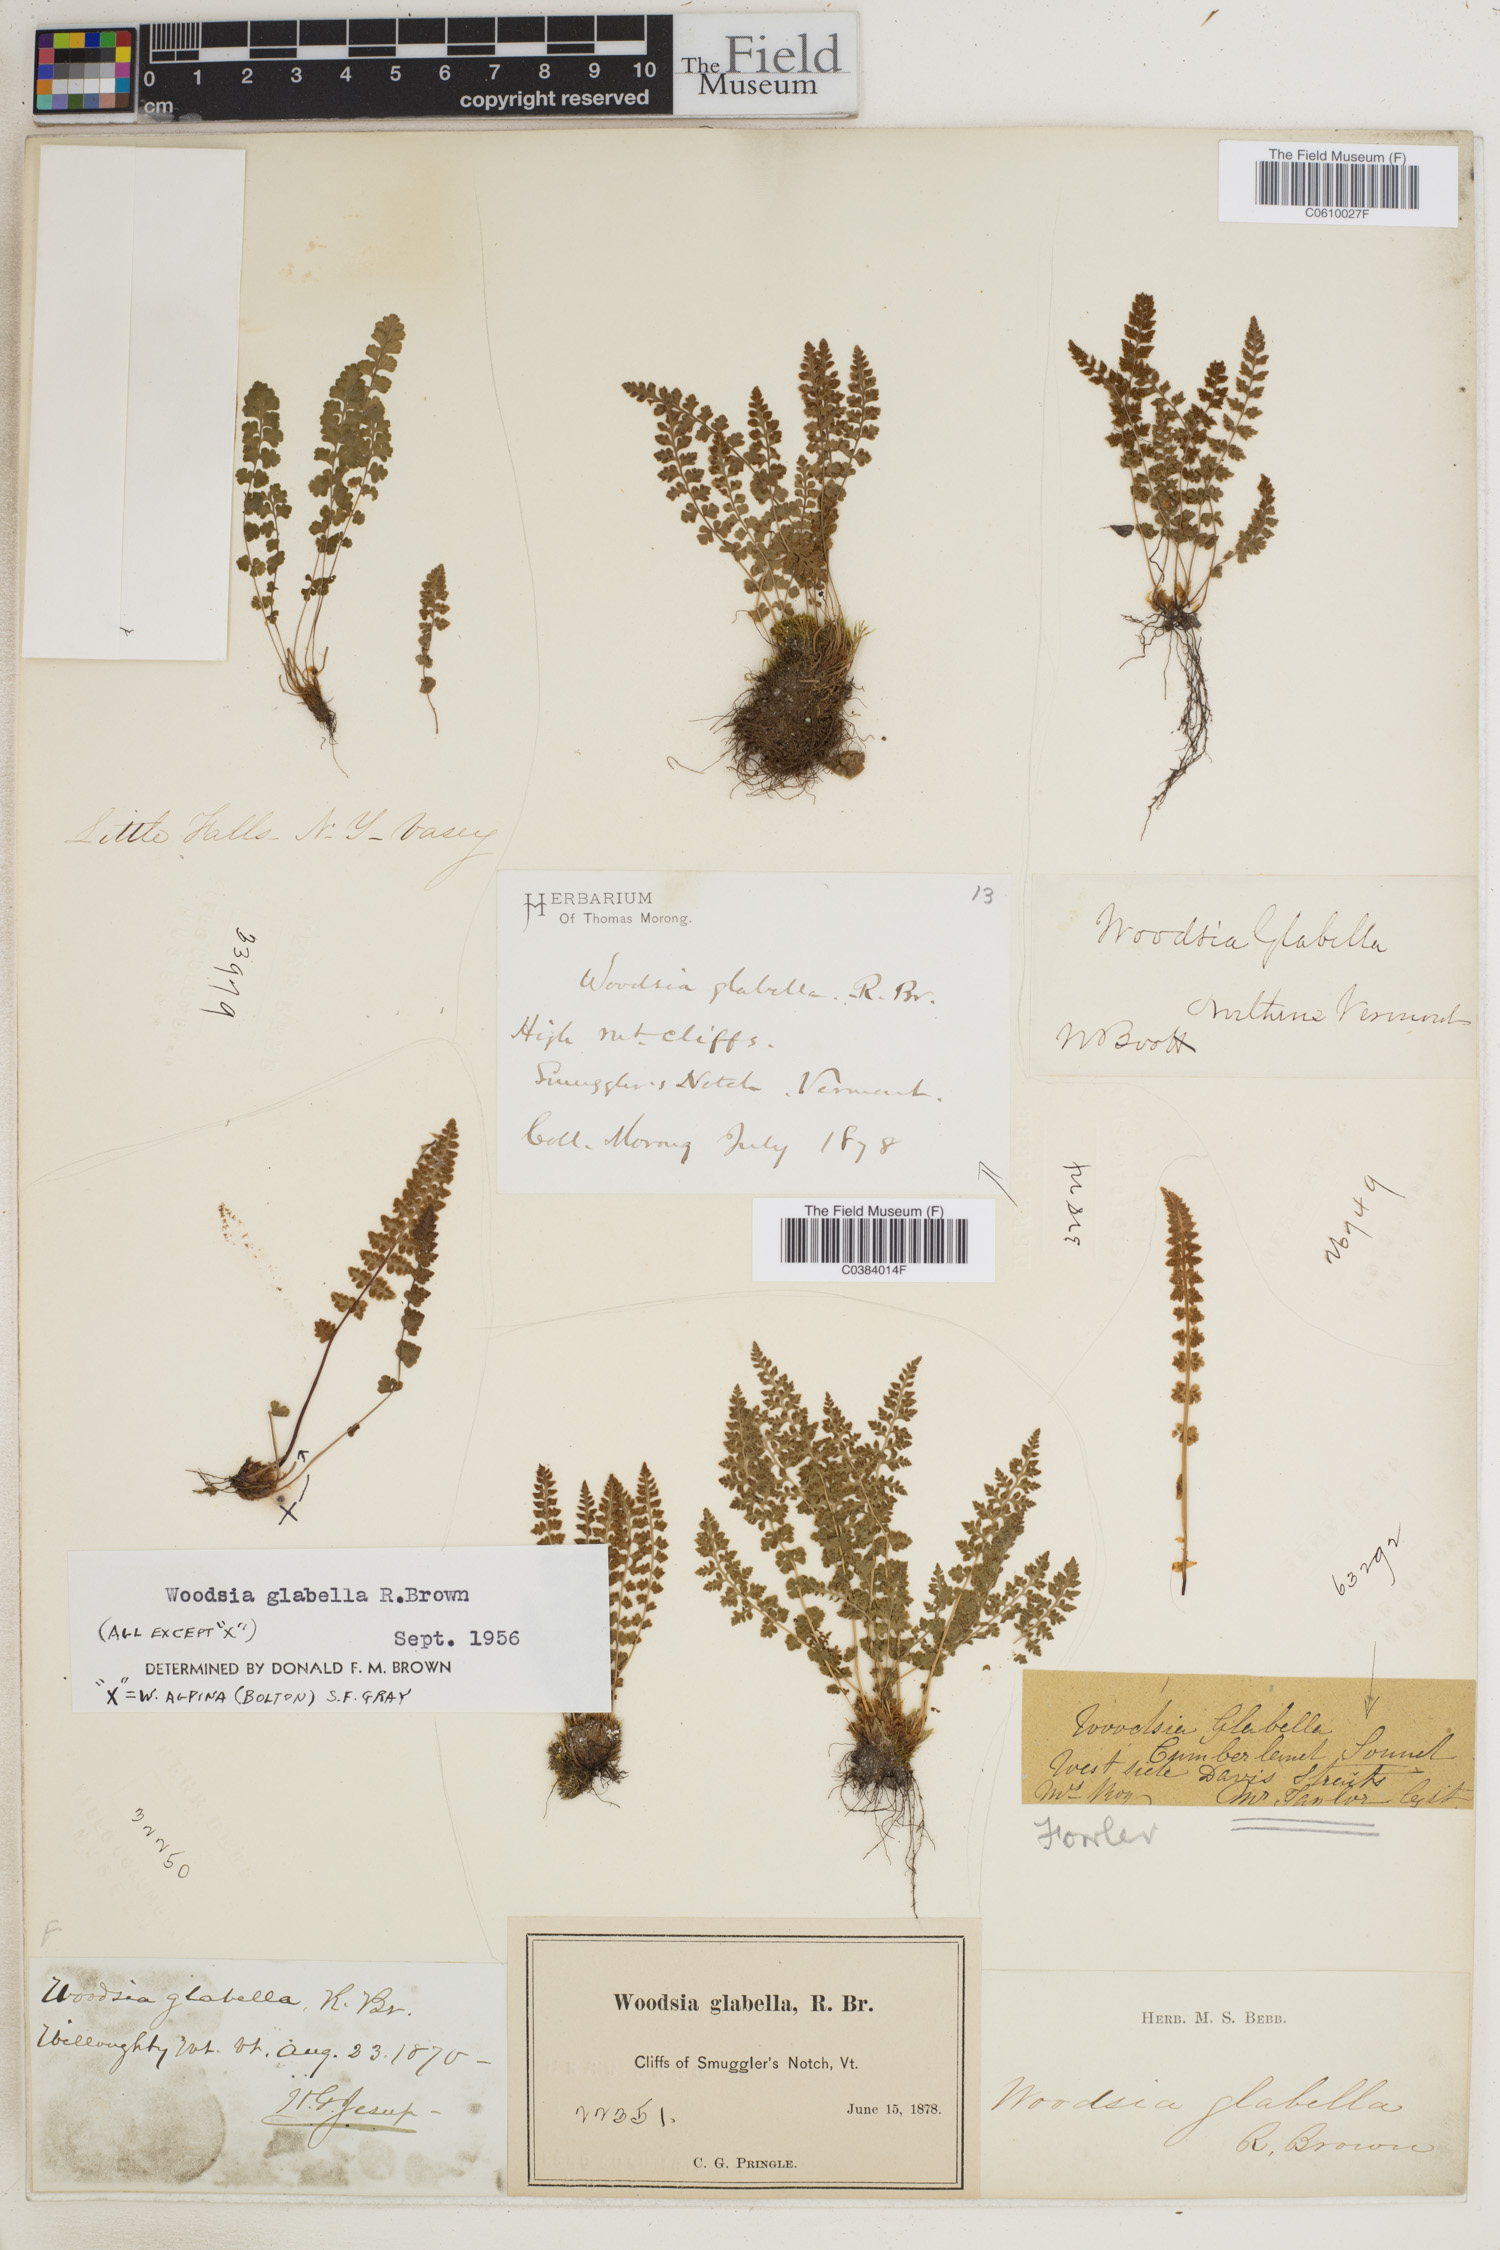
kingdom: Plantae
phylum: Tracheophyta
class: Polypodiopsida
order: Polypodiales
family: Woodsiaceae
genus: Woodsia
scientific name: Woodsia glabella
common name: Smooth woodsia
